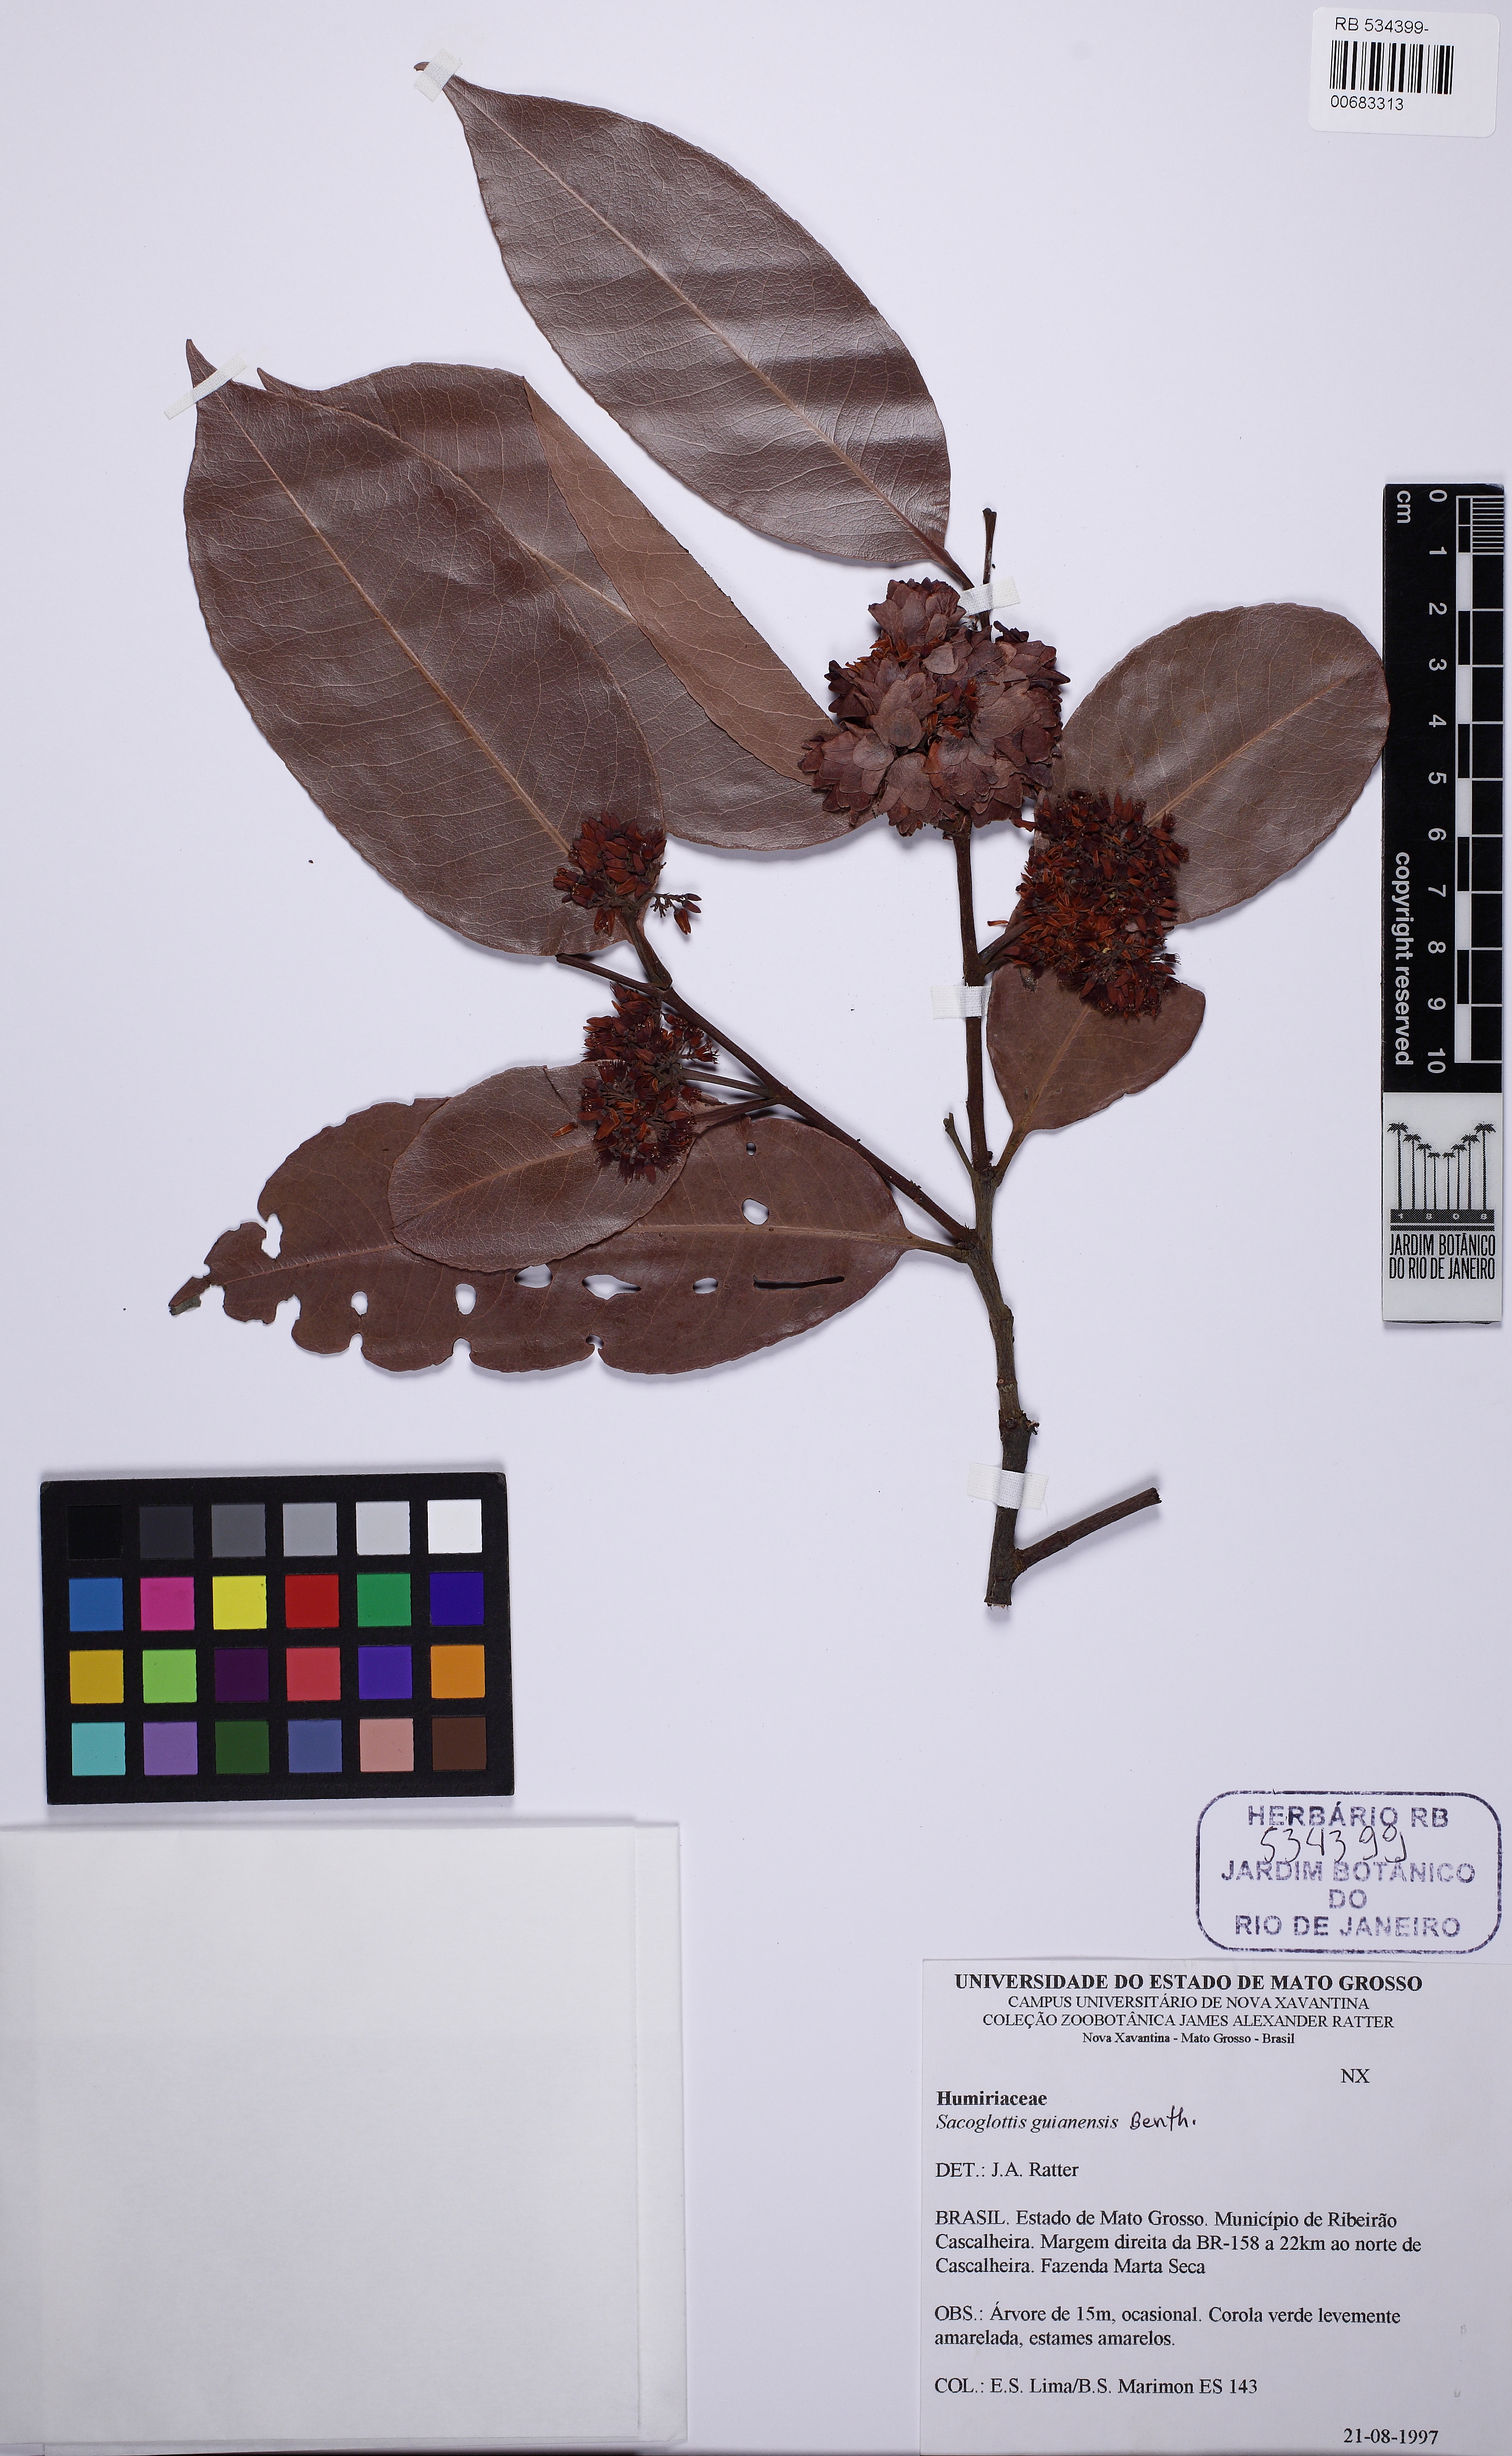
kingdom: Plantae
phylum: Tracheophyta
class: Magnoliopsida
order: Malpighiales
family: Humiriaceae
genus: Sacoglottis
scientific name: Sacoglottis mattogrossensis
